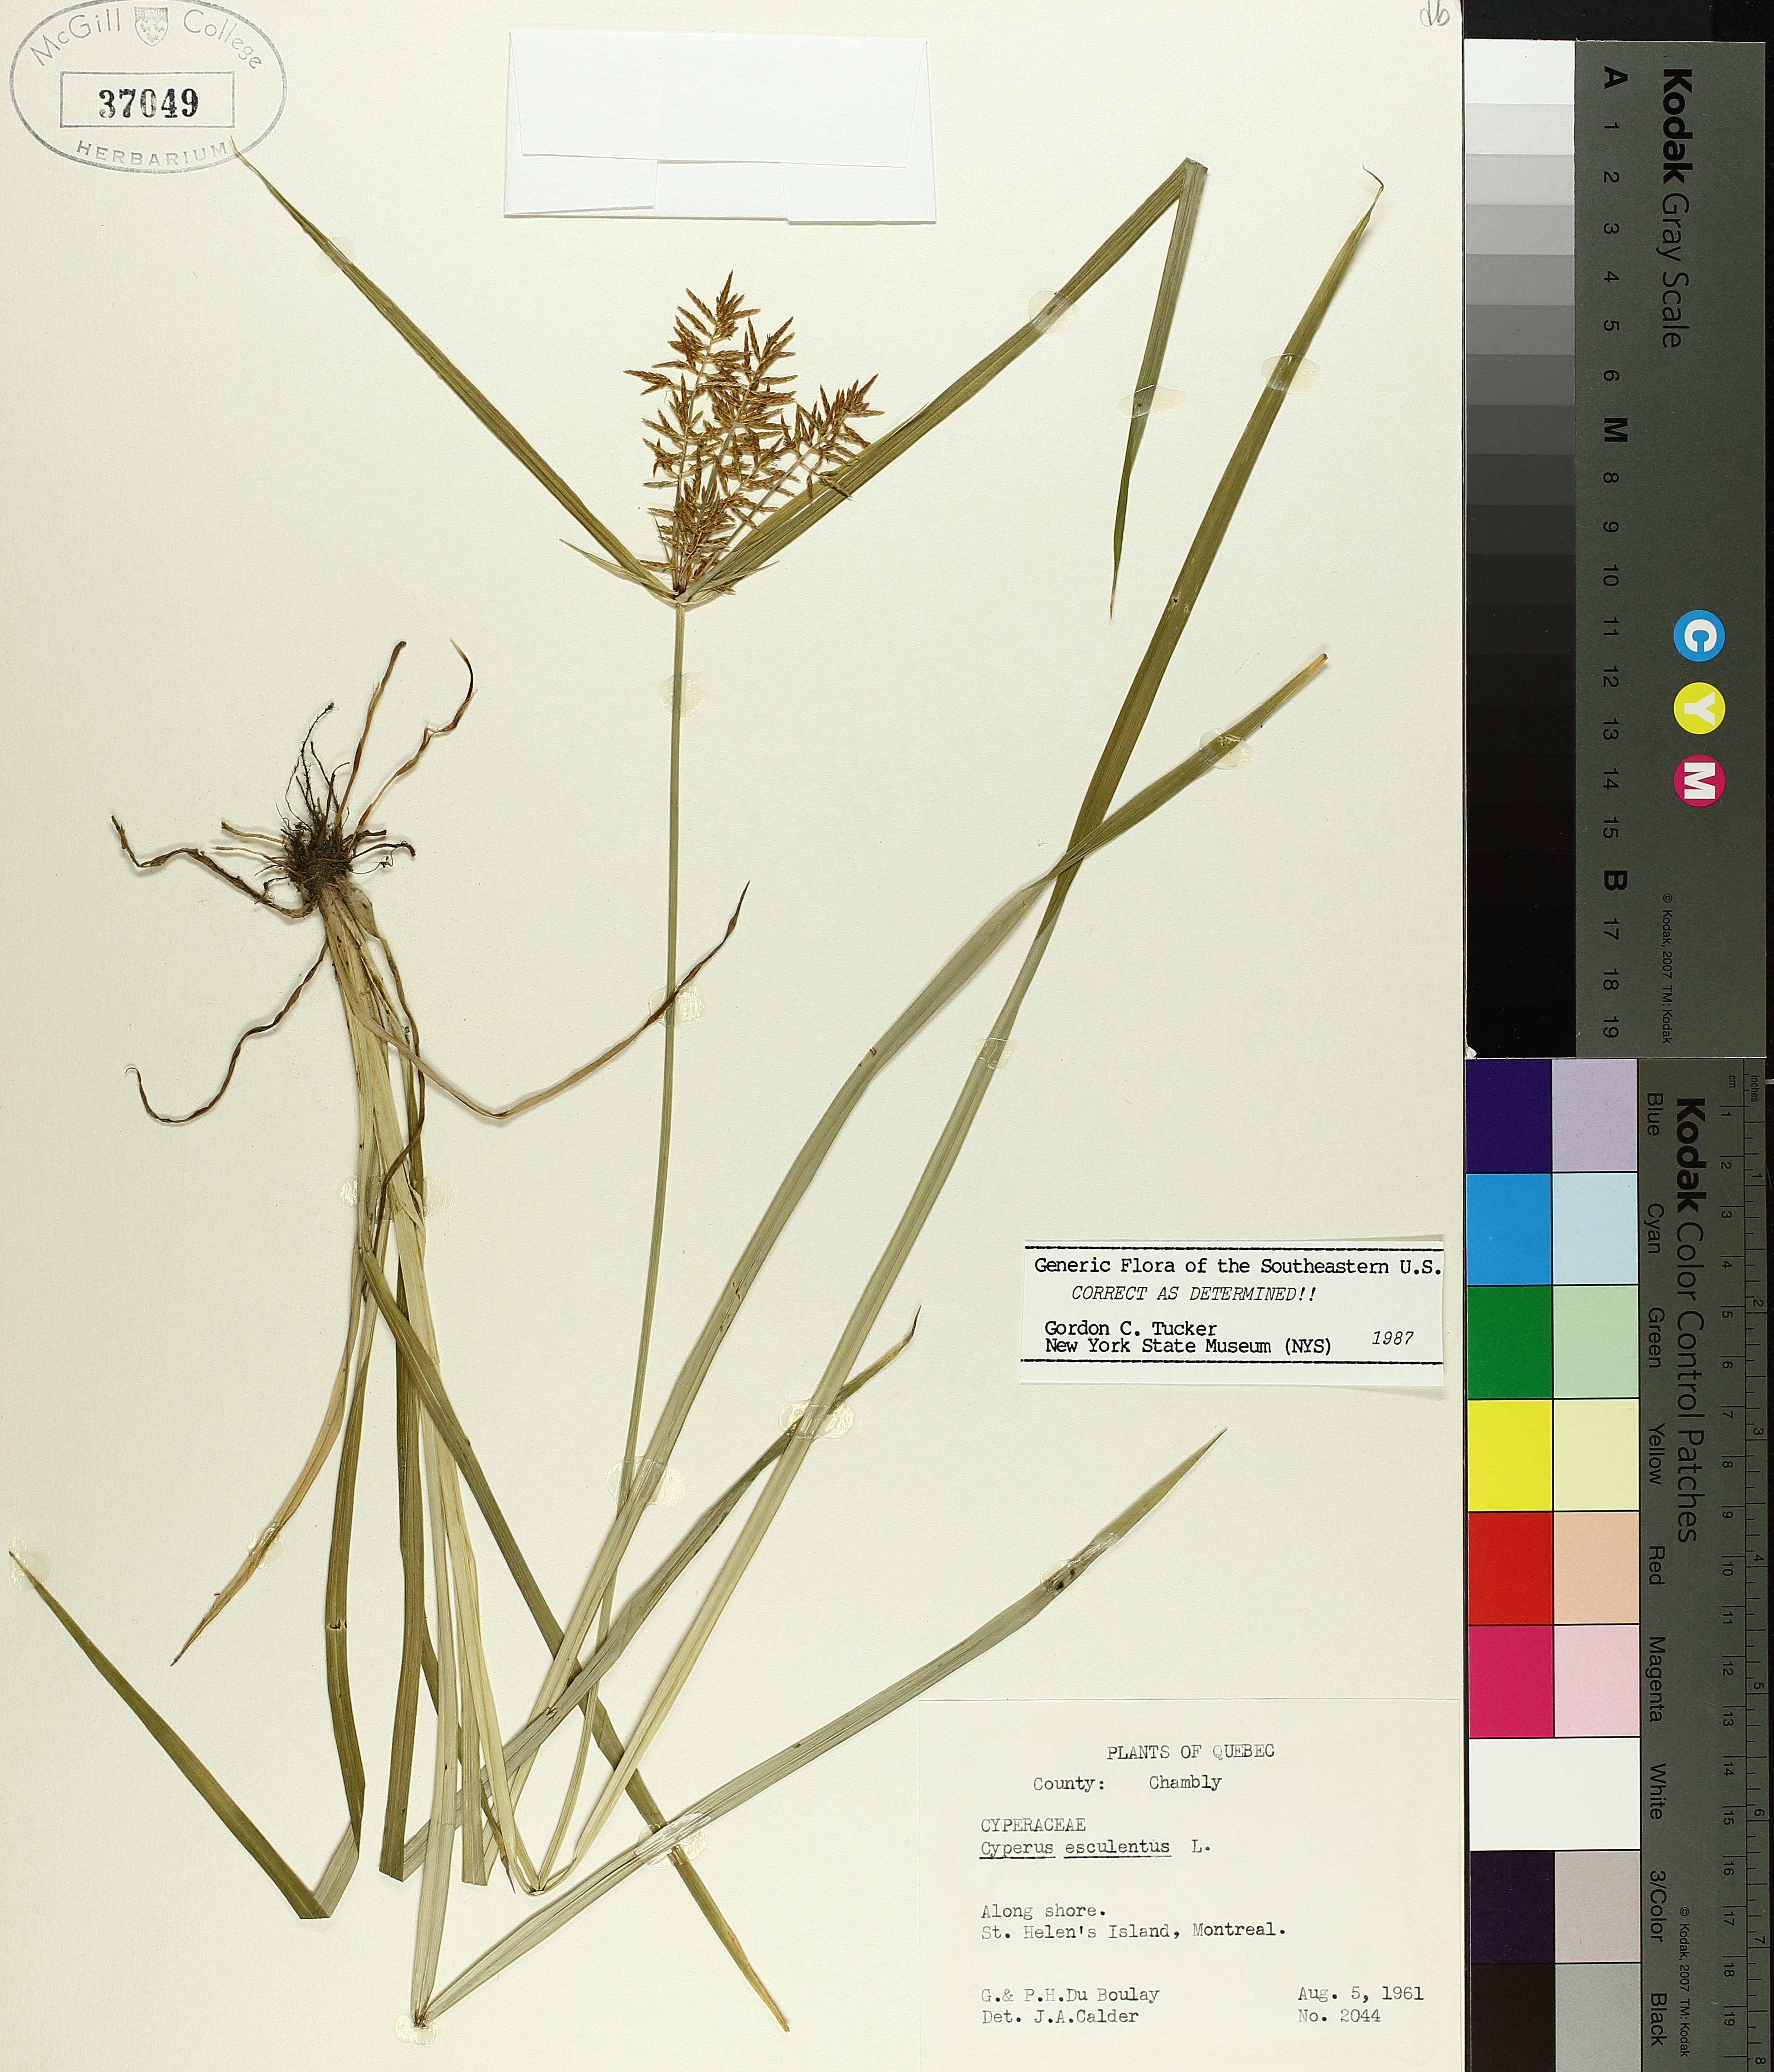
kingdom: Plantae
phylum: Tracheophyta
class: Liliopsida
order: Poales
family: Cyperaceae
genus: Cyperus
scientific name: Cyperus esculentus
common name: Yellow nutsedge
